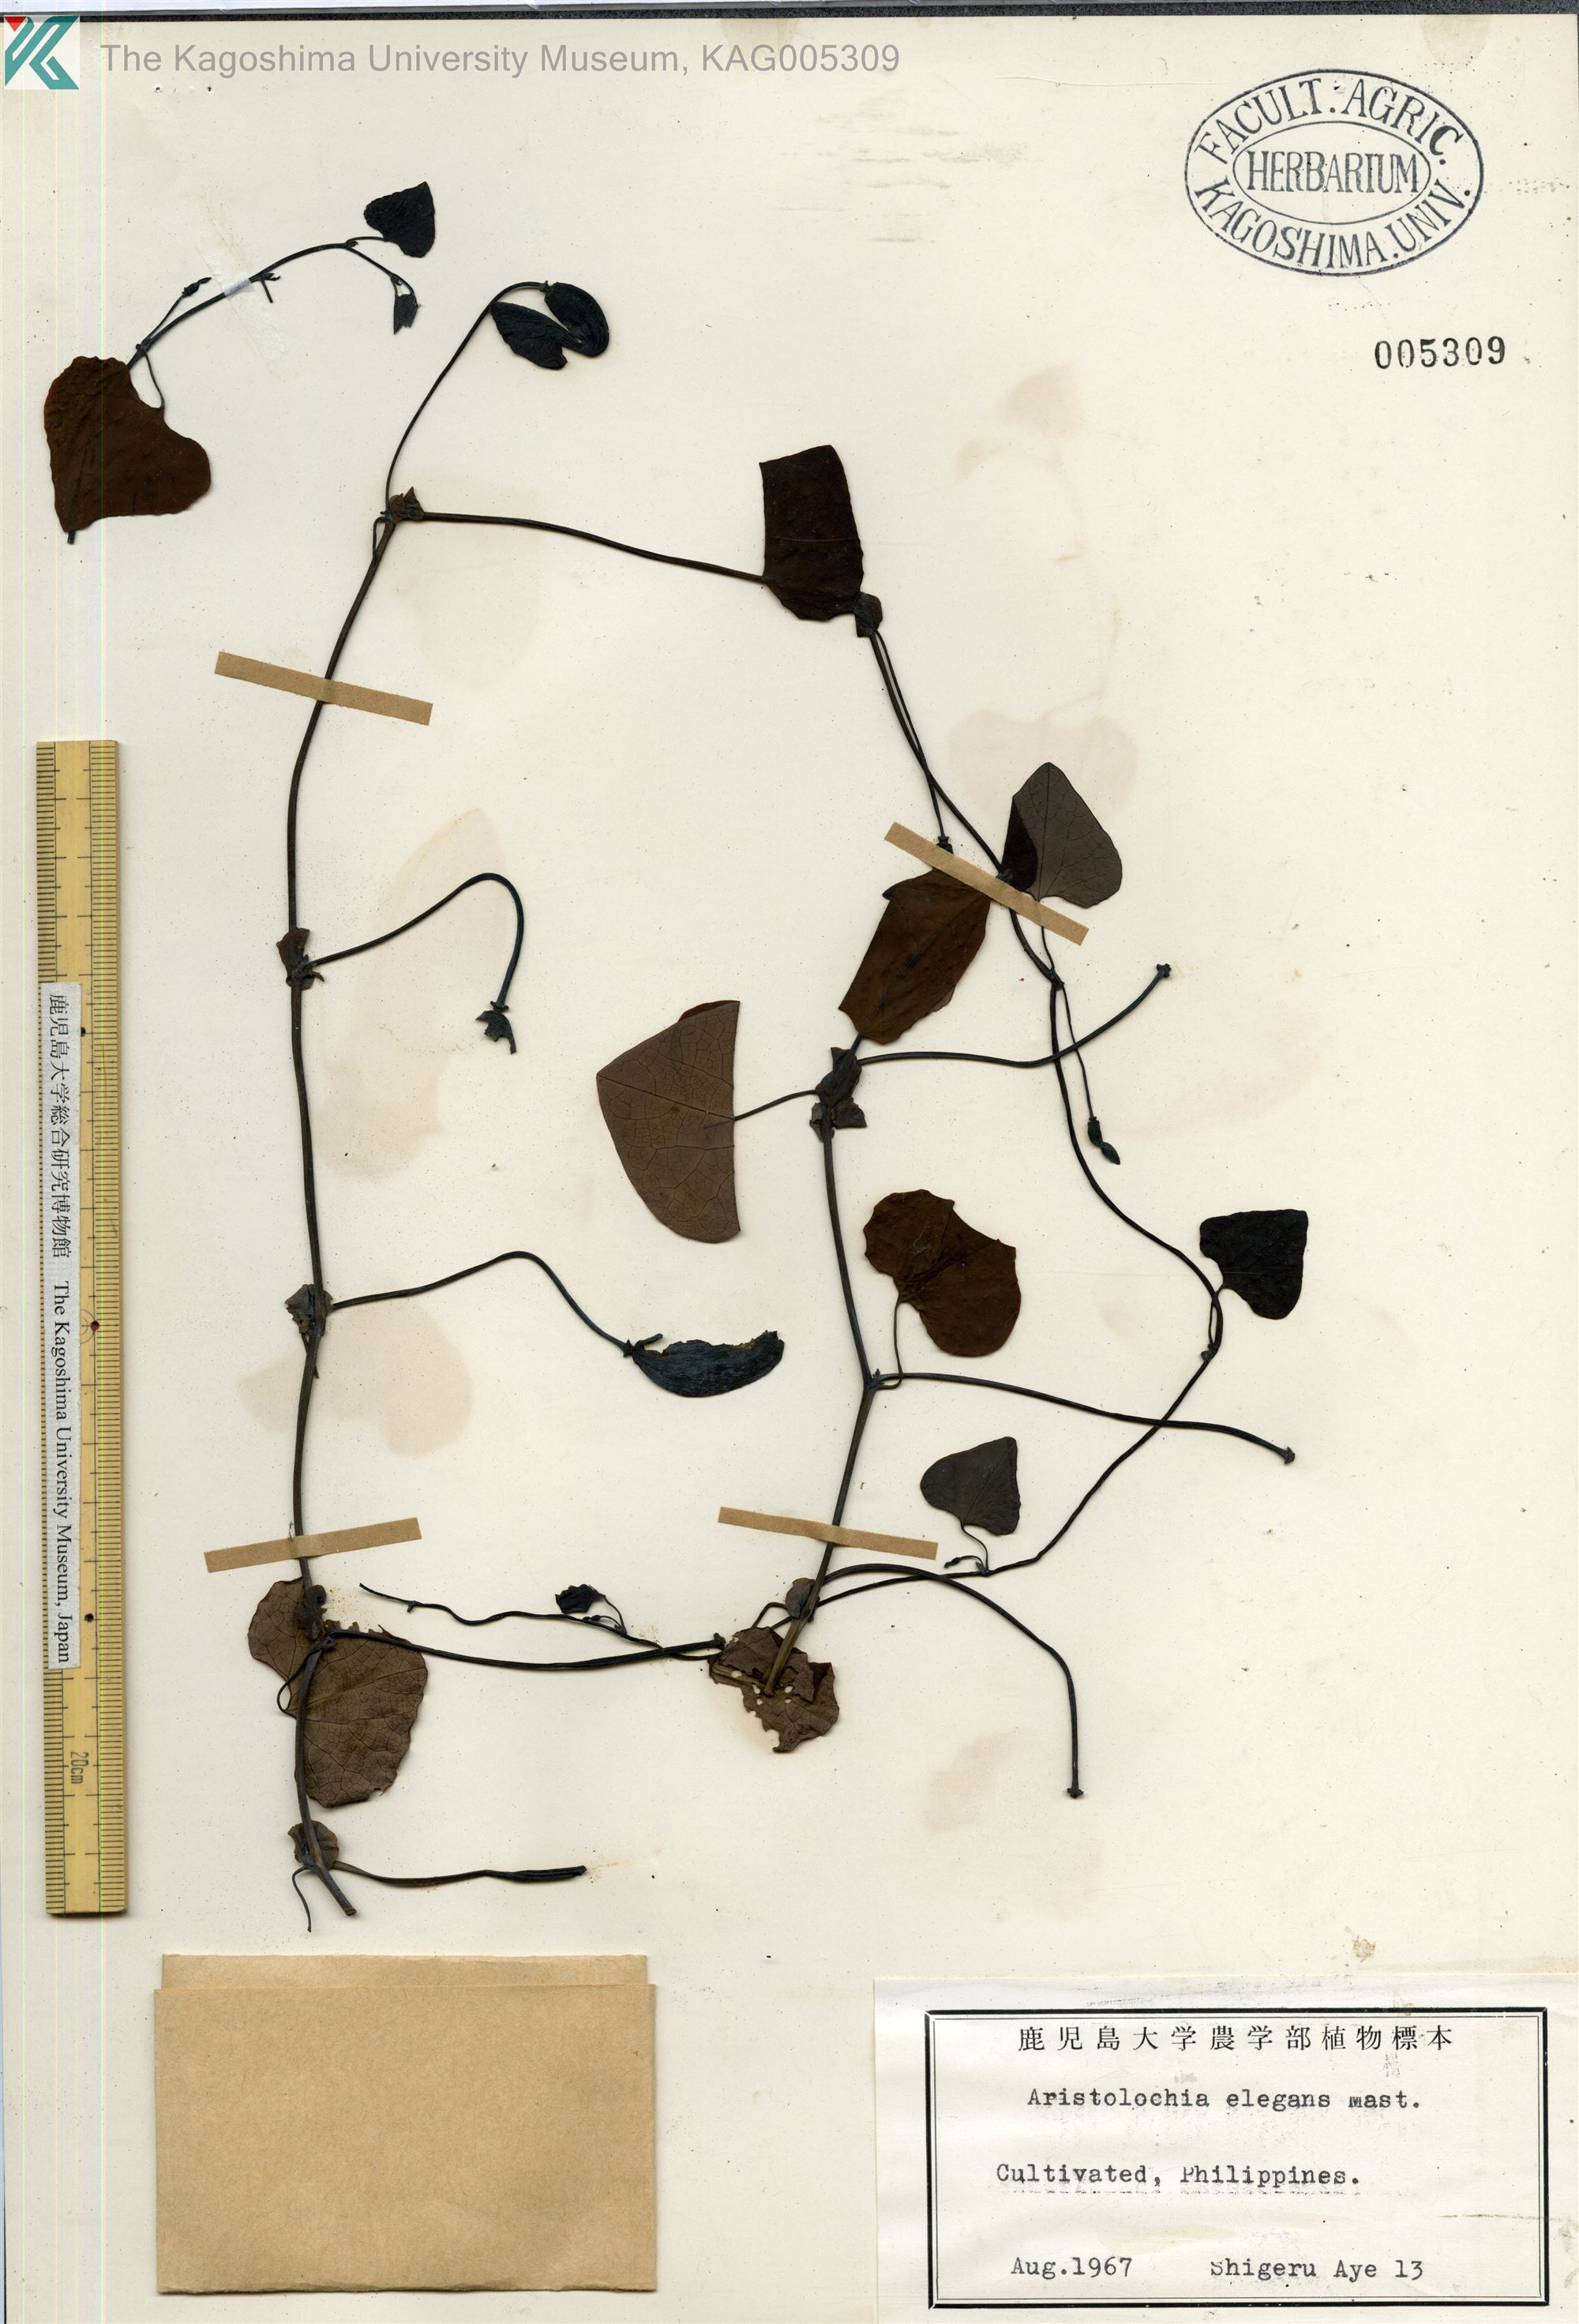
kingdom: Plantae
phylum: Tracheophyta
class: Magnoliopsida
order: Piperales
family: Aristolochiaceae
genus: Aristolochia
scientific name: Aristolochia littoralis
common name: Duck
